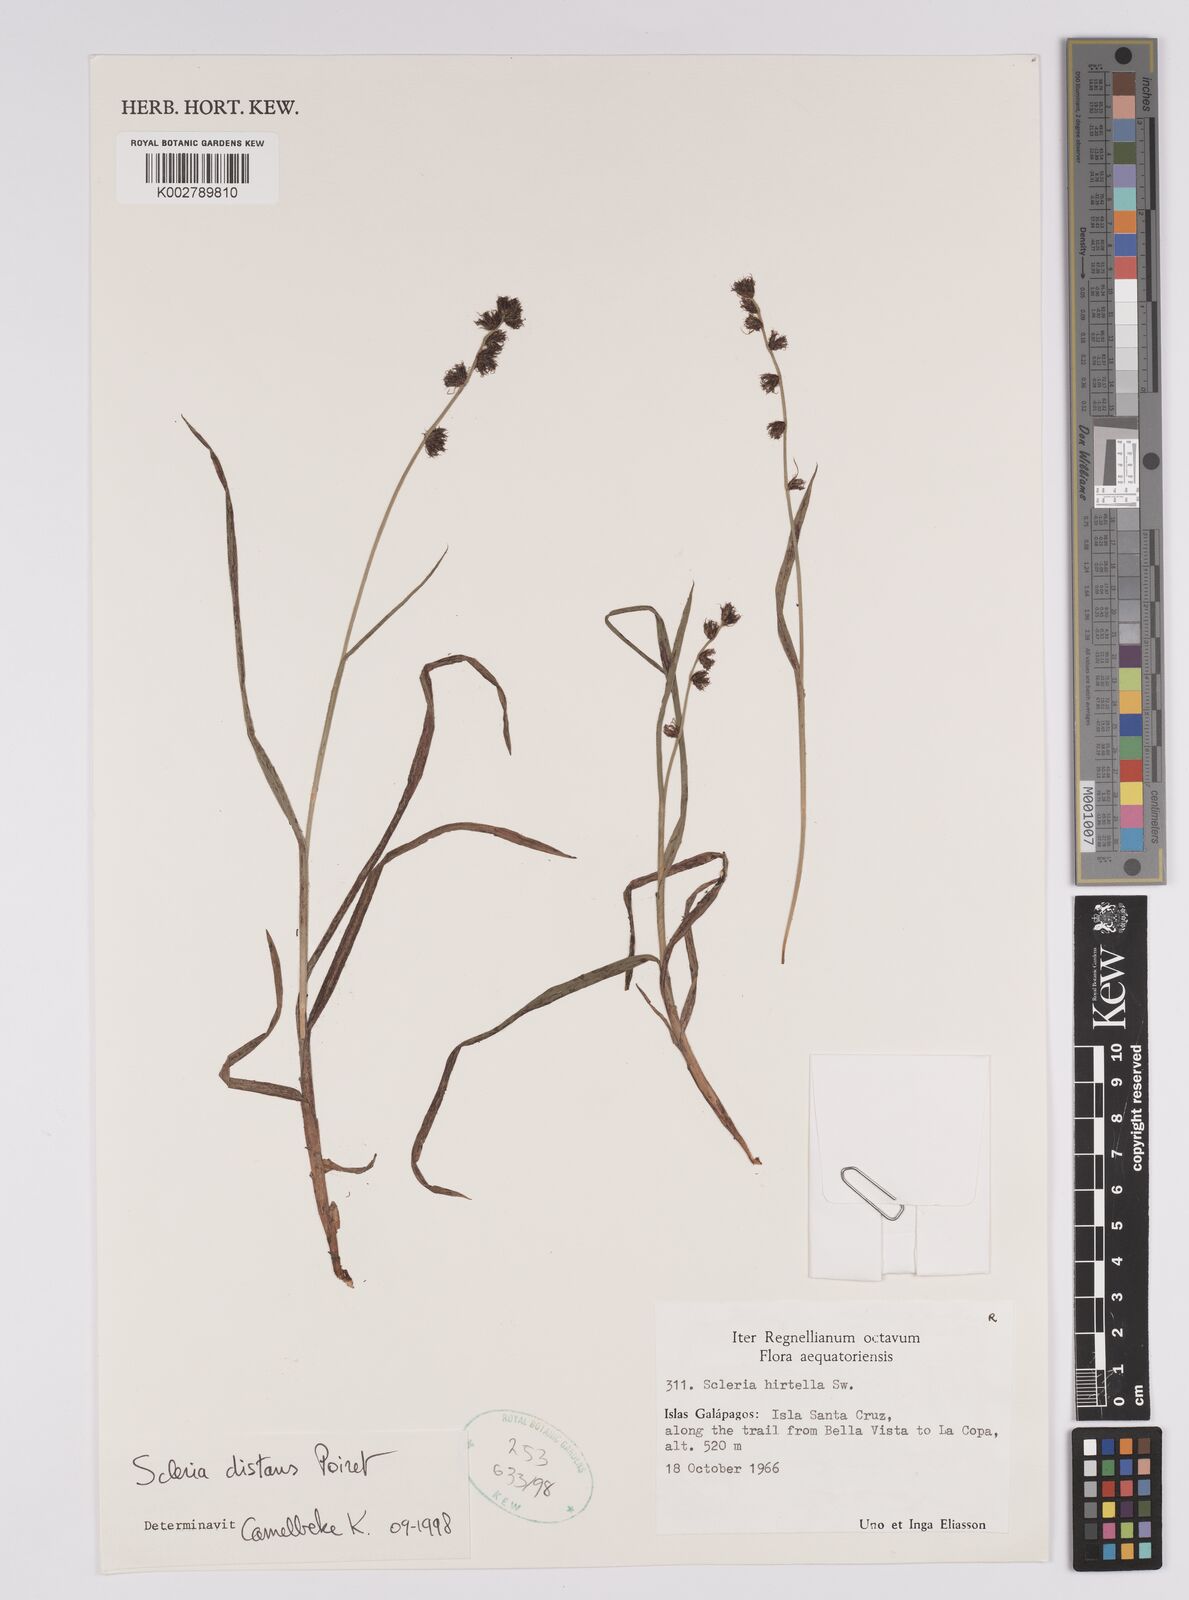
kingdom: Plantae
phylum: Tracheophyta
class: Liliopsida
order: Poales
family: Cyperaceae
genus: Scleria
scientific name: Scleria distans
